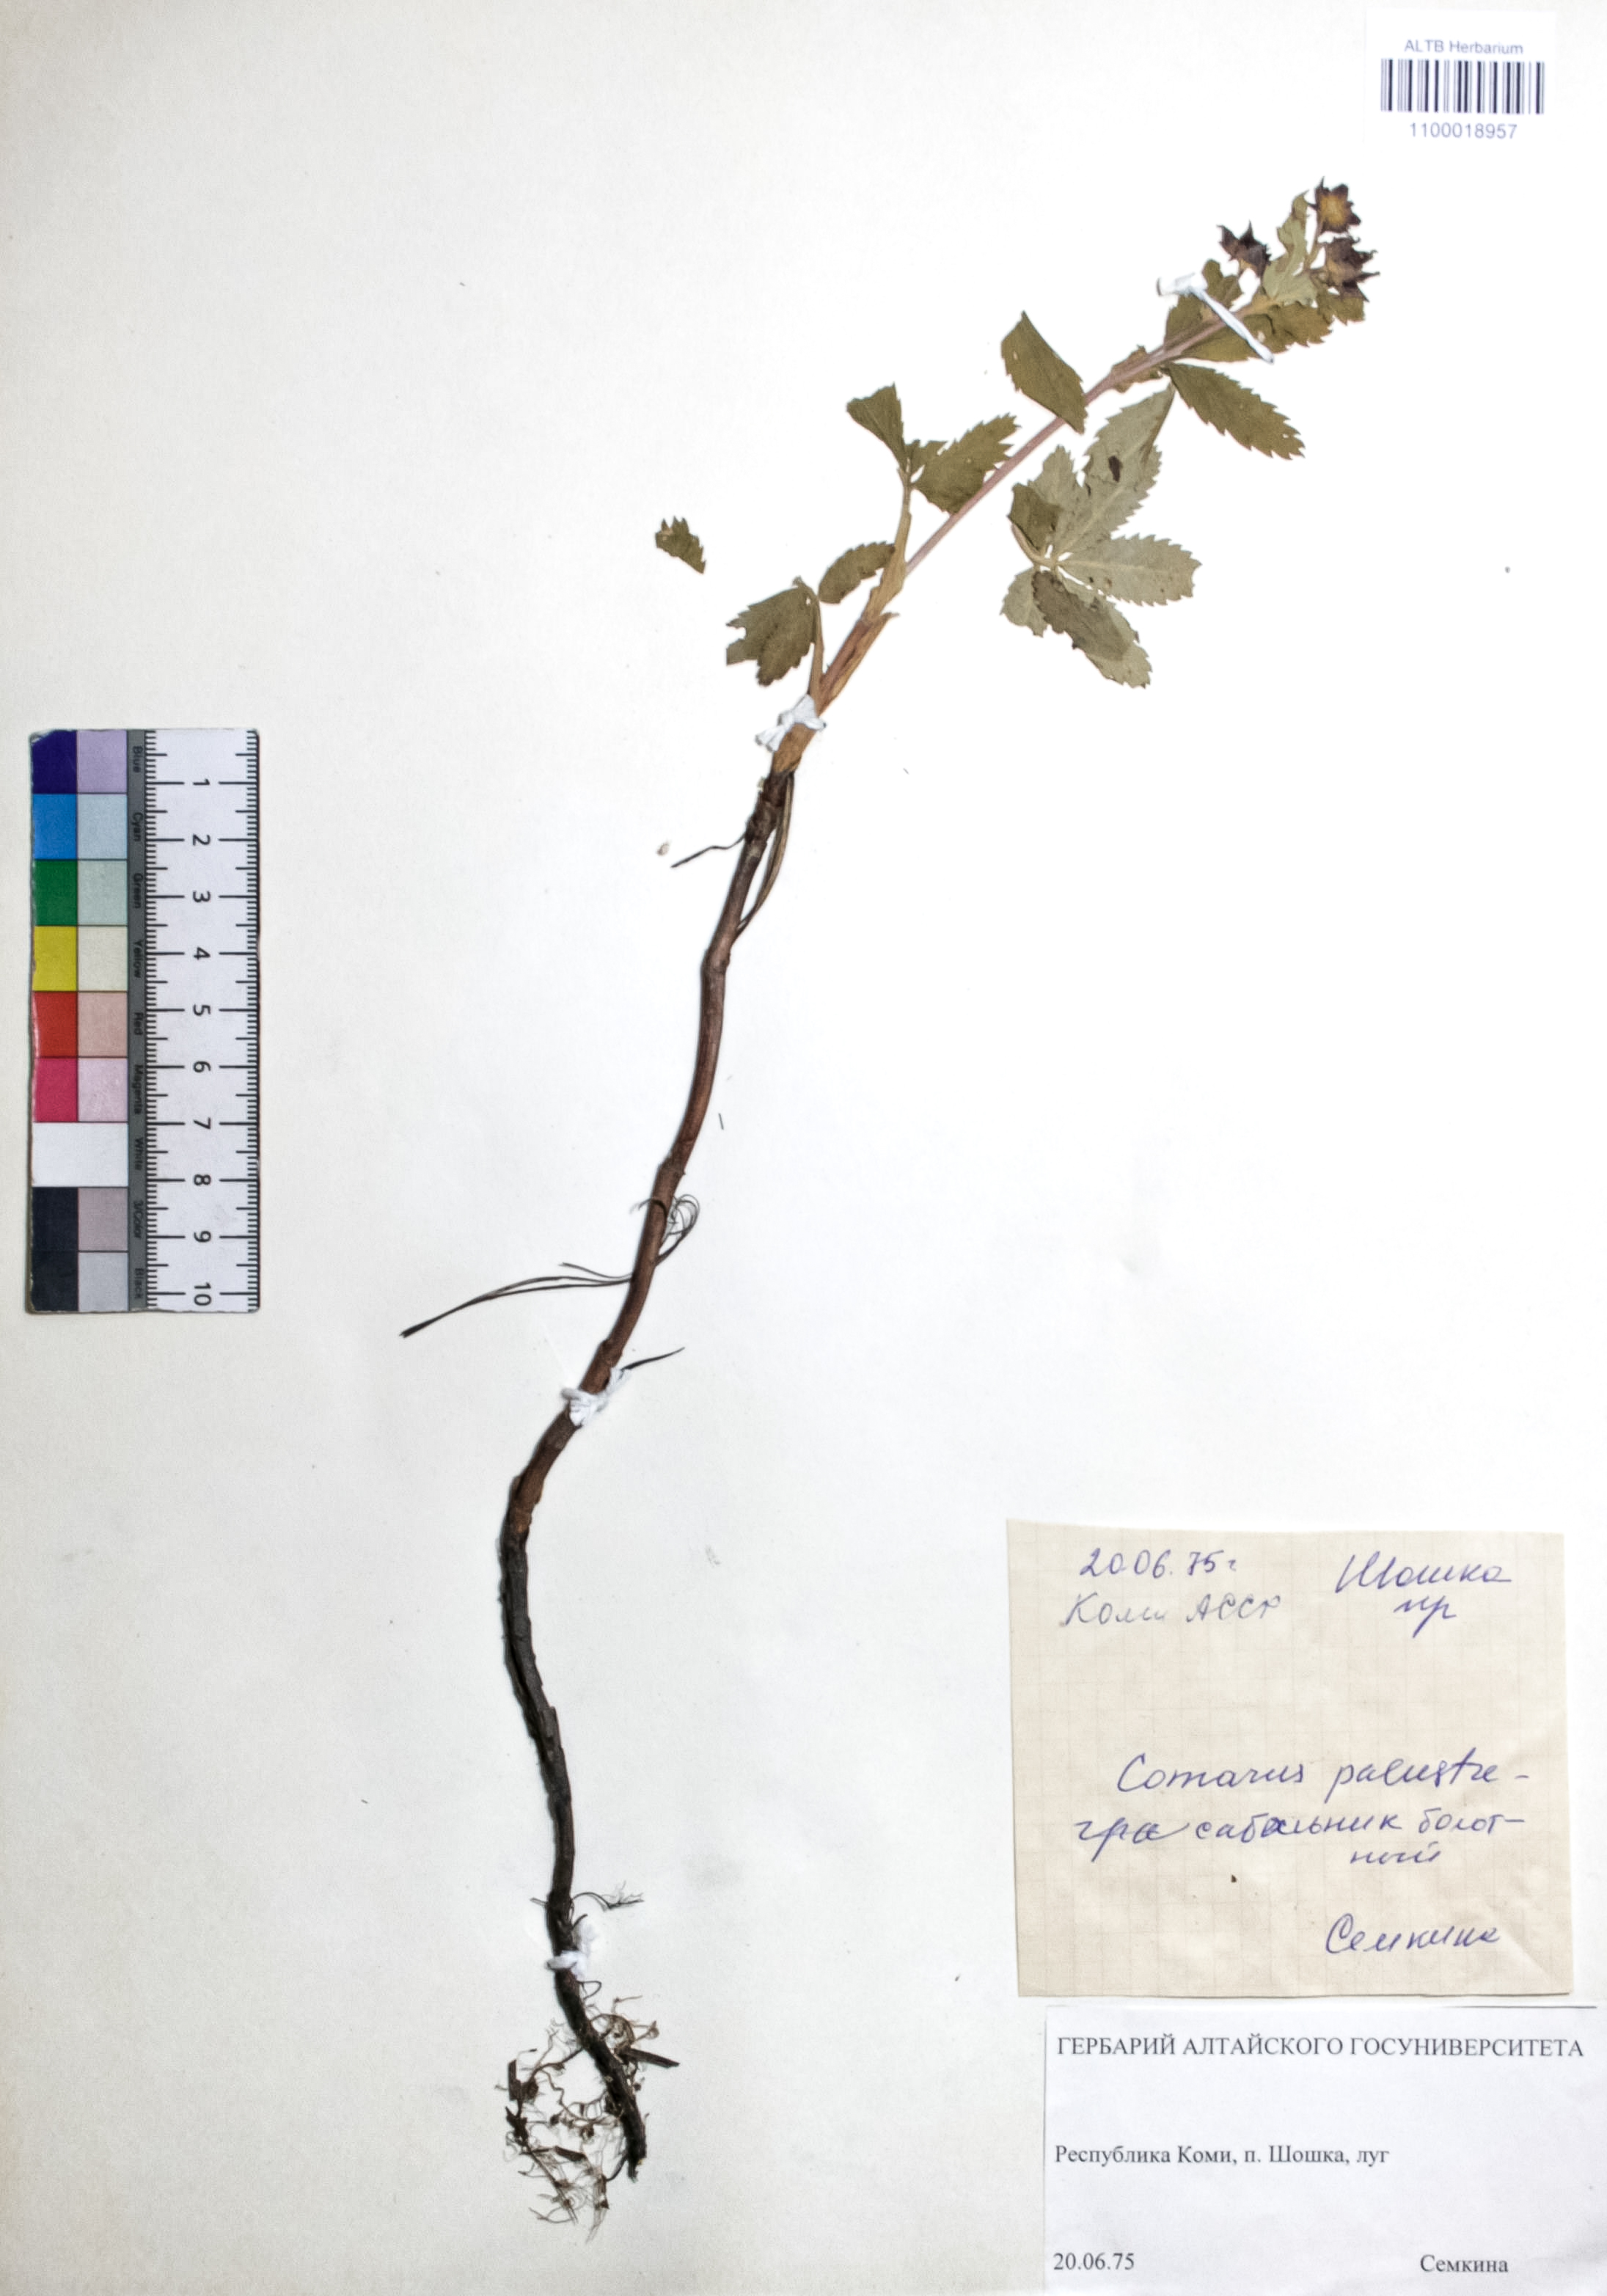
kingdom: Plantae
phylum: Tracheophyta
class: Magnoliopsida
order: Rosales
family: Rosaceae
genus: Comarum
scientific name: Comarum palustre
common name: Marsh cinquefoil
